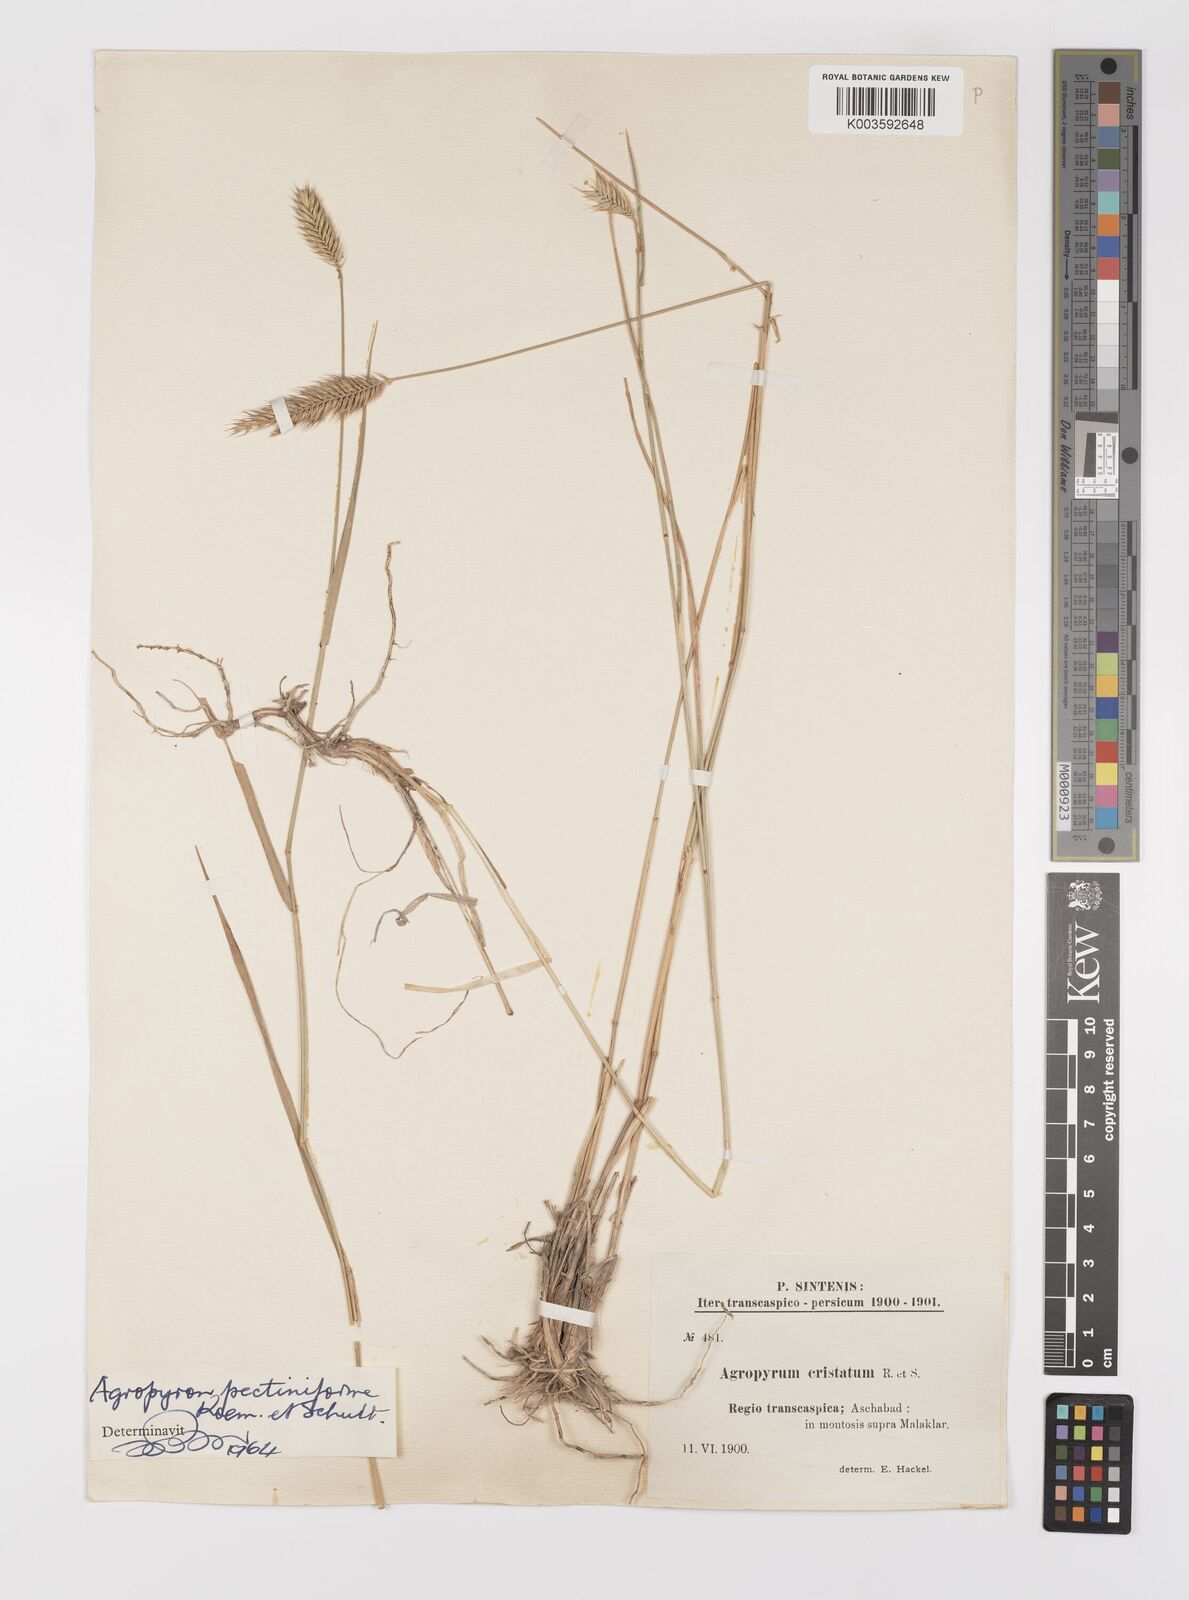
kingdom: Plantae
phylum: Tracheophyta
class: Liliopsida
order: Poales
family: Poaceae
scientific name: Poaceae
